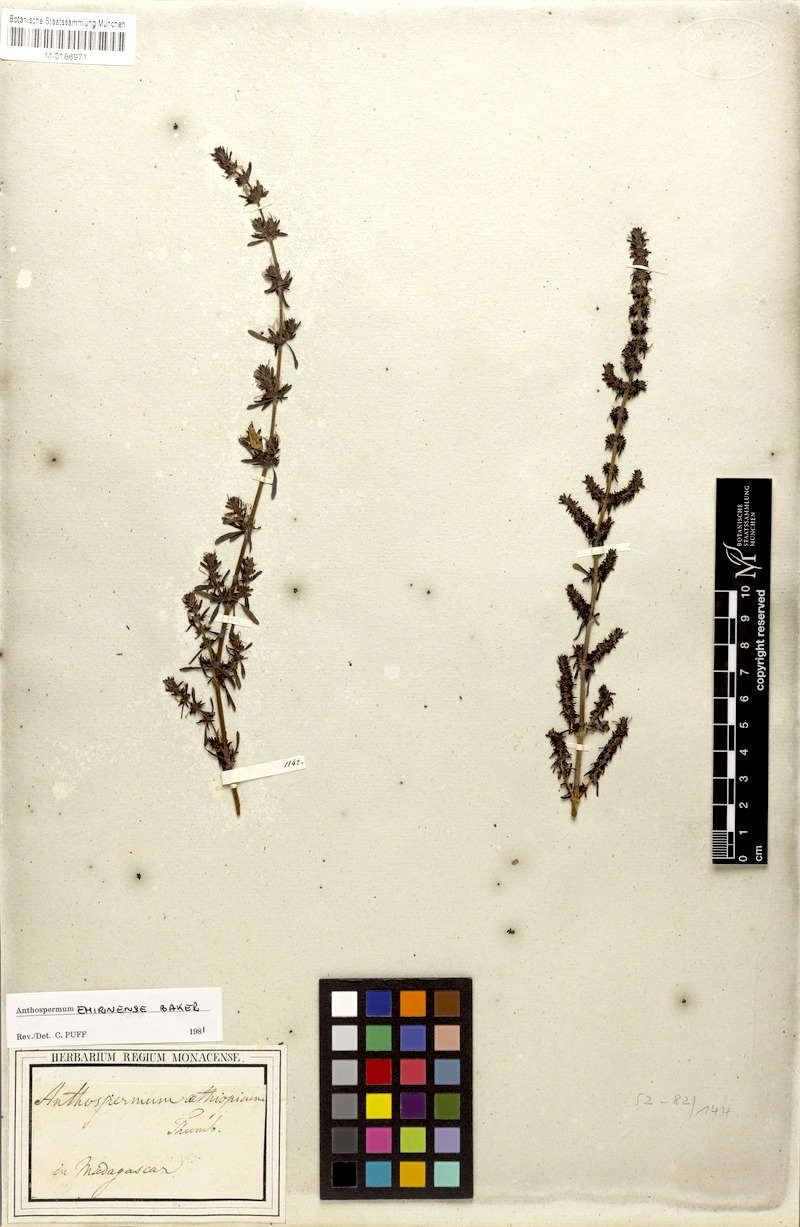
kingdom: Plantae
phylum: Tracheophyta
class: Magnoliopsida
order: Gentianales
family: Rubiaceae
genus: Anthospermum
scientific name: Anthospermum emirnense
